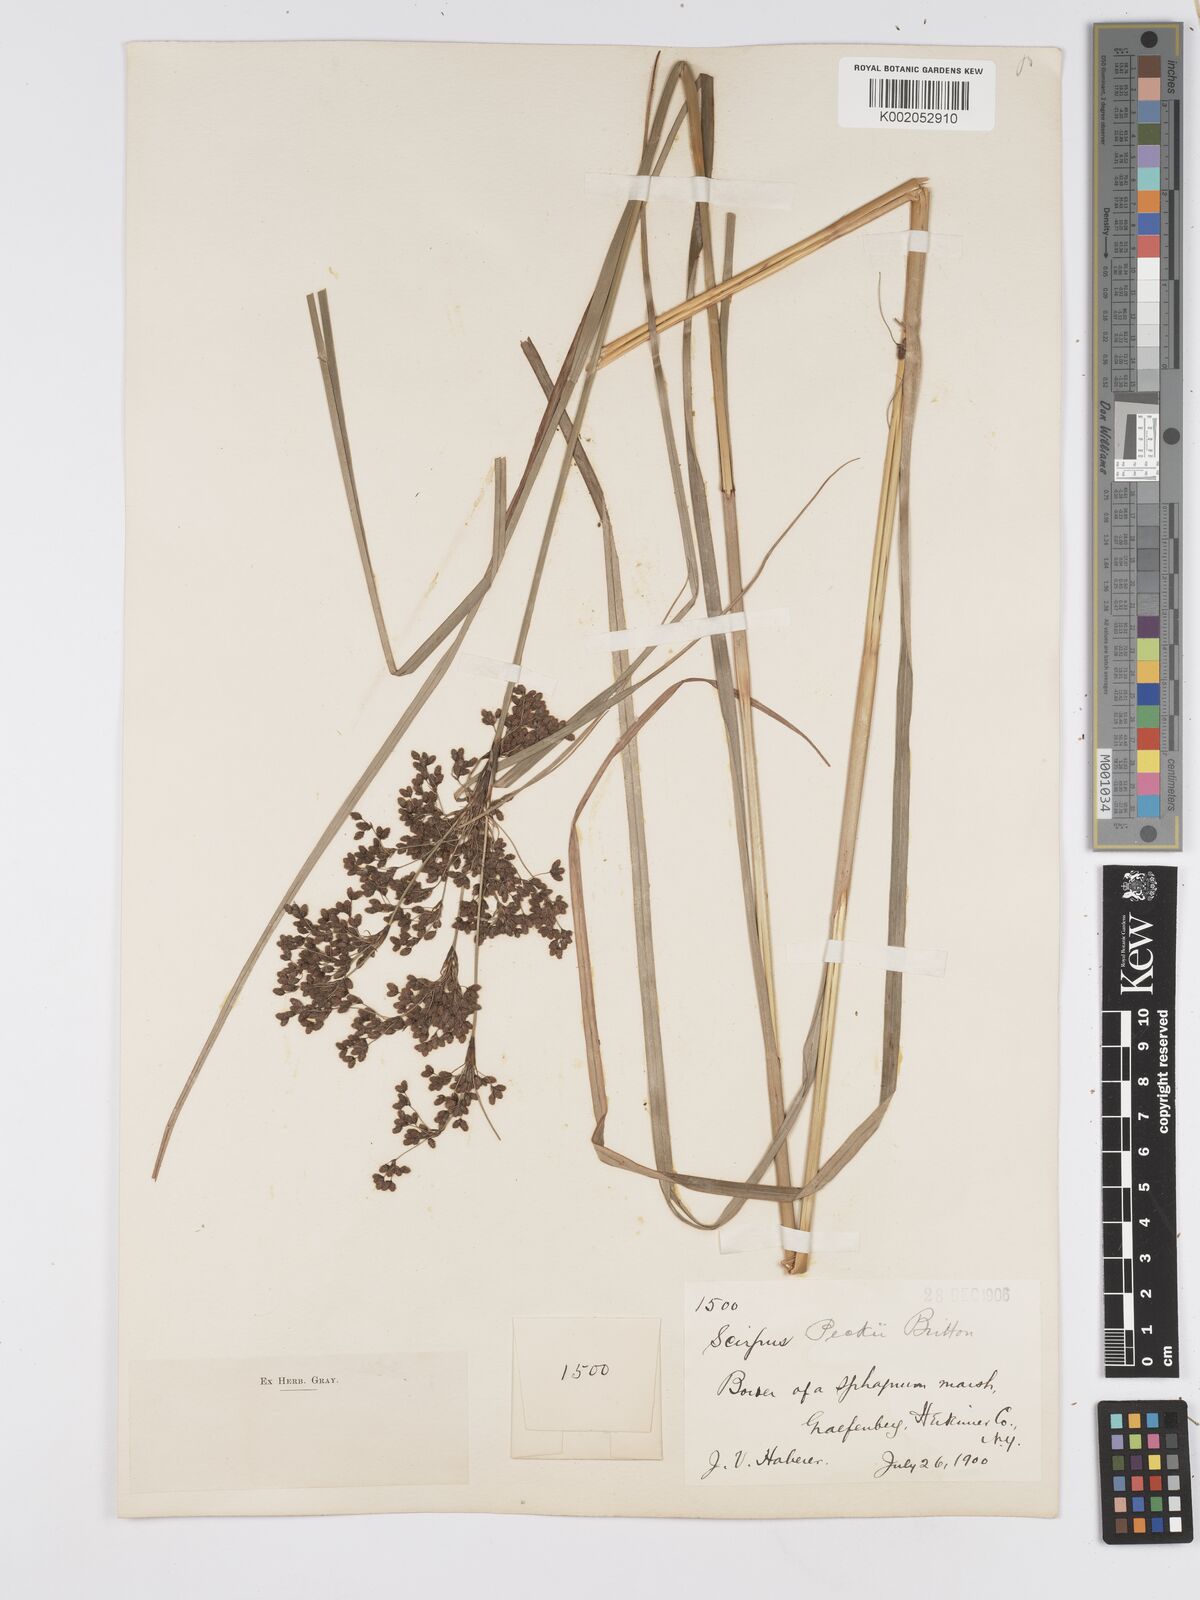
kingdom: Plantae
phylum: Tracheophyta
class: Liliopsida
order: Poales
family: Cyperaceae
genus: Scirpus
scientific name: Scirpus sylvaticus
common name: Wood club-rush
